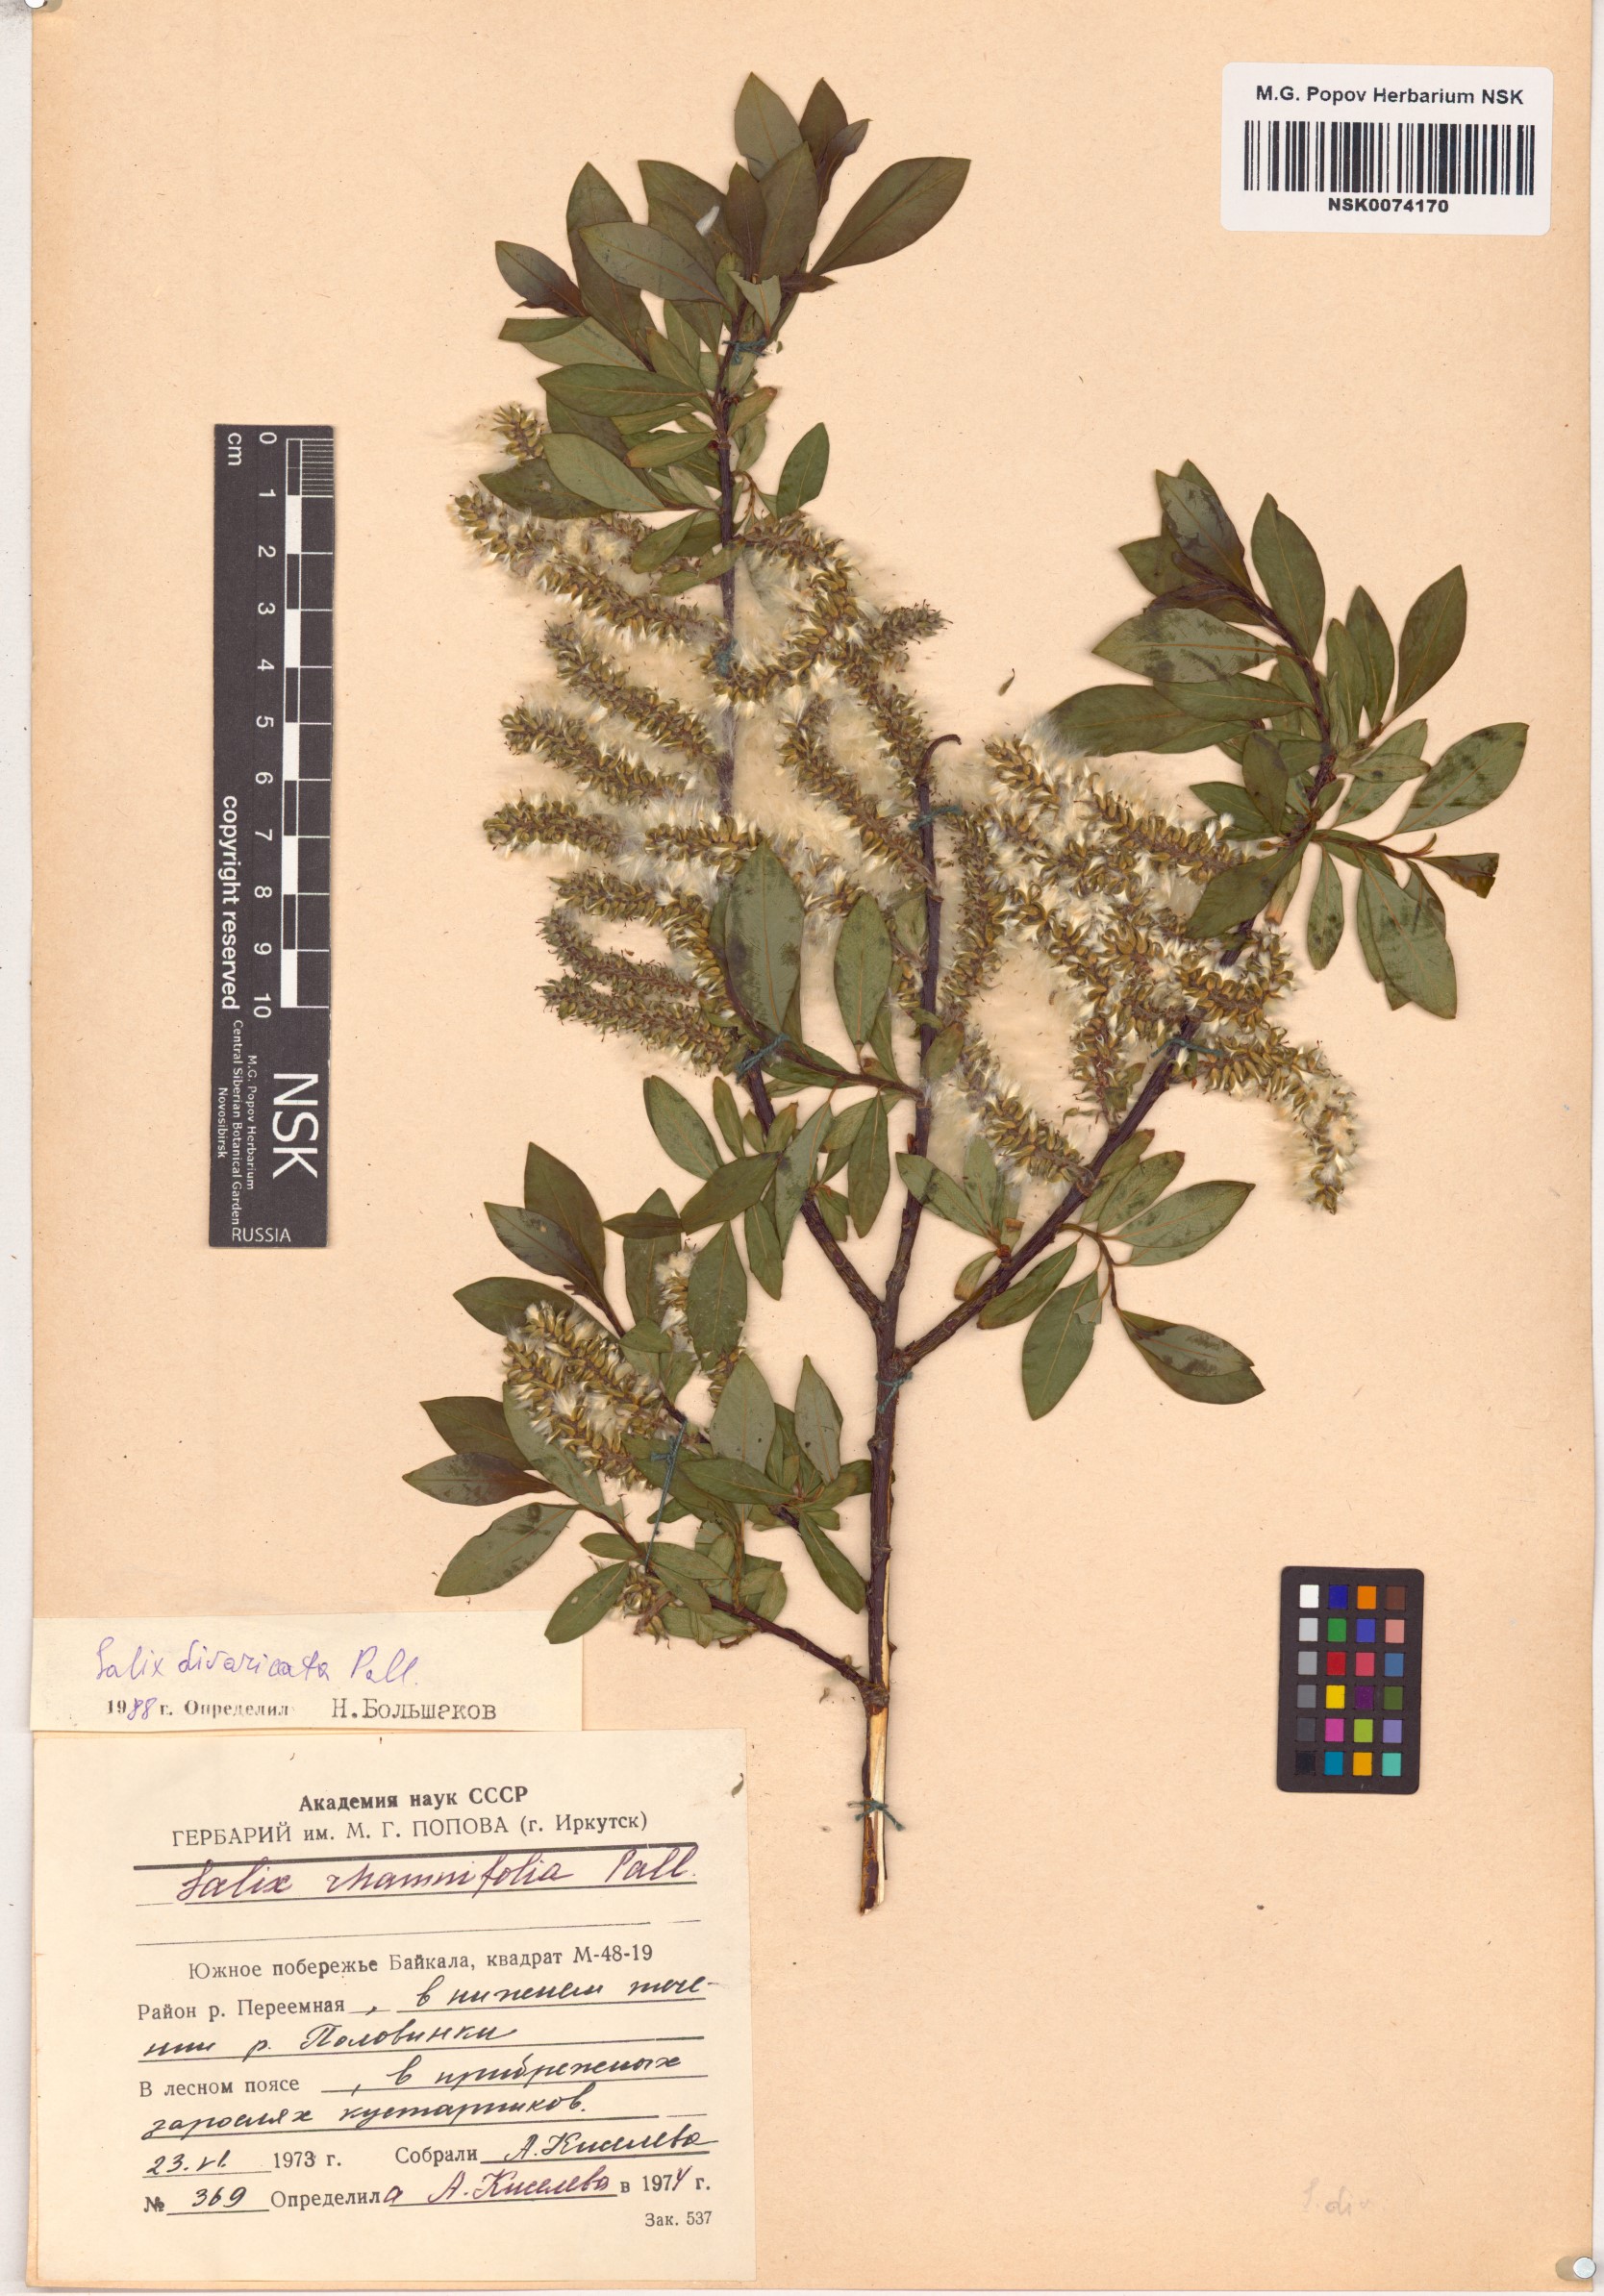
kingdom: Plantae
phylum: Tracheophyta
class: Magnoliopsida
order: Malpighiales
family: Salicaceae
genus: Salix
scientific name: Salix divaricata
